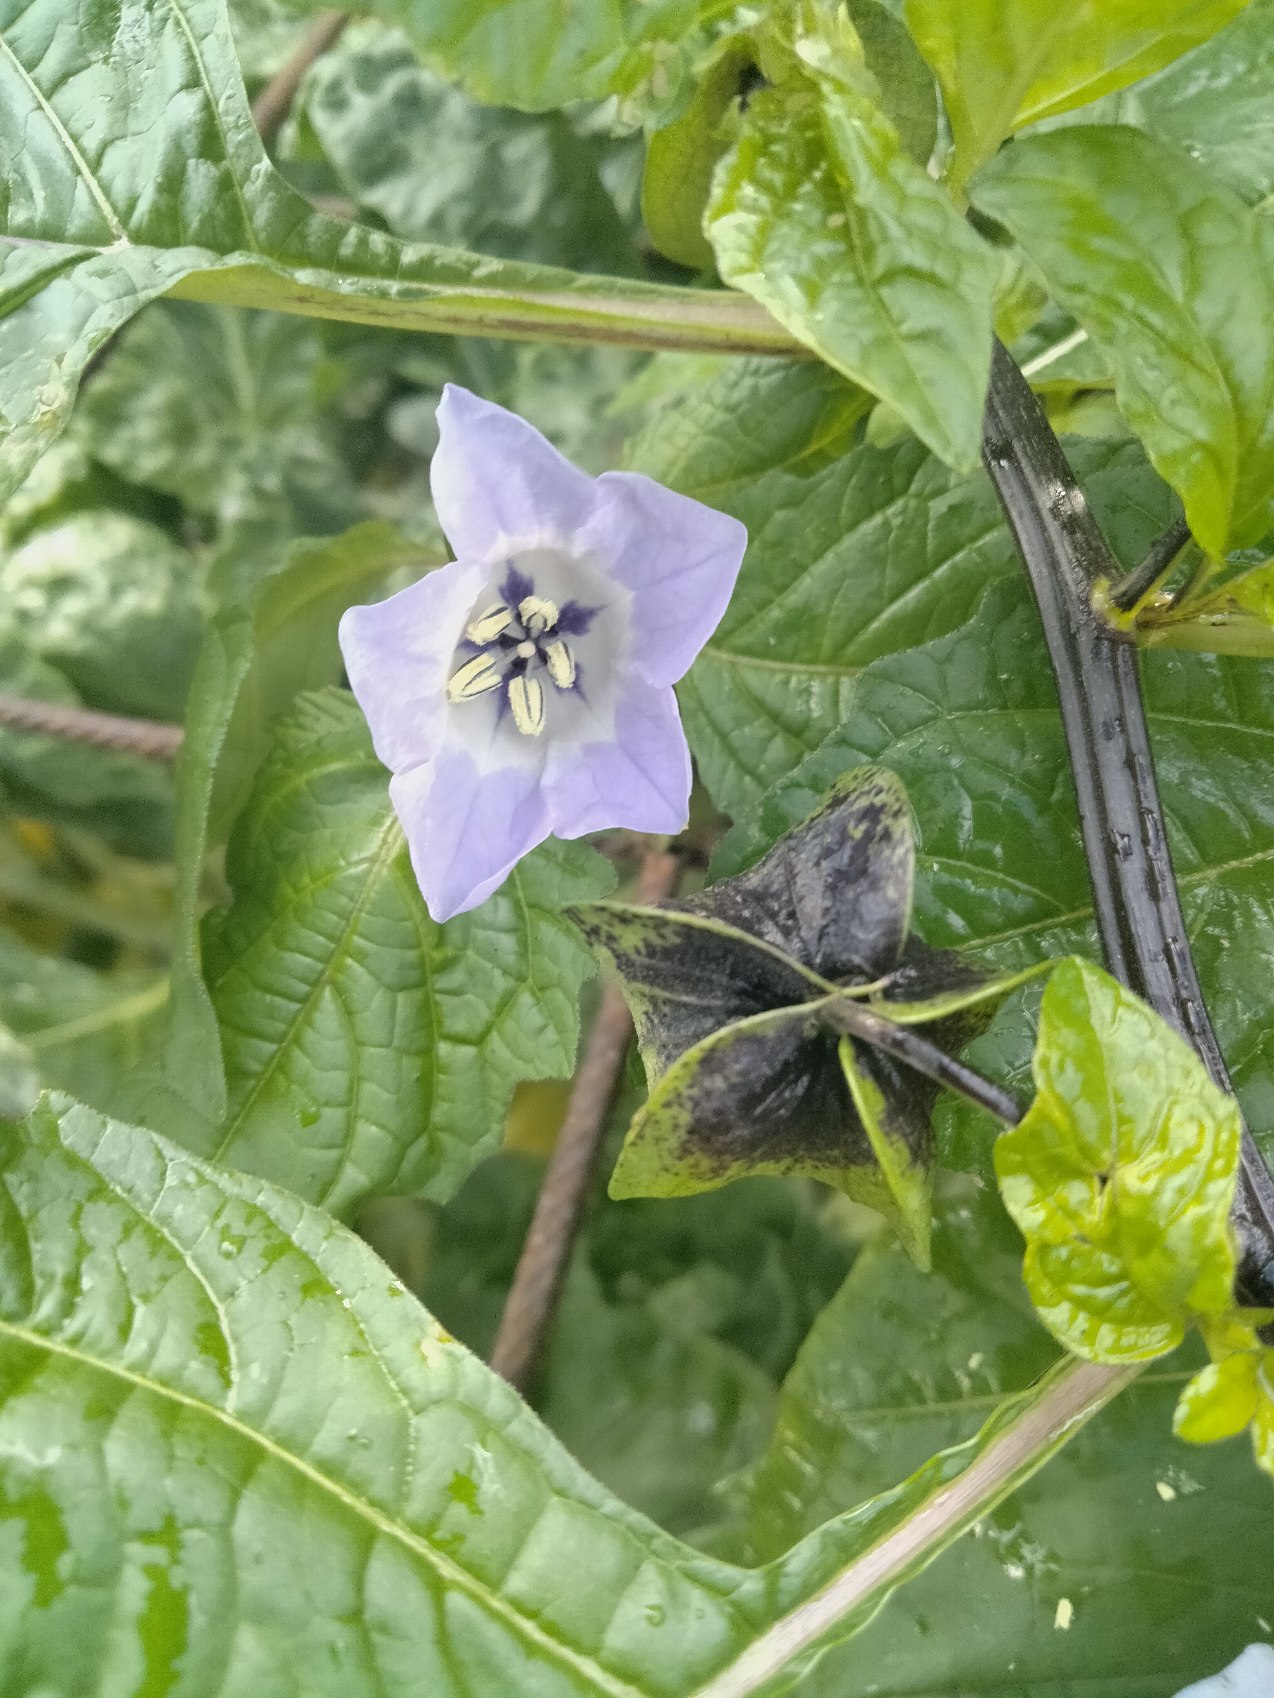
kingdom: Plantae
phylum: Tracheophyta
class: Magnoliopsida
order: Solanales
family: Solanaceae
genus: Nicandra
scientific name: Nicandra physalodes
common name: Kantbæger
